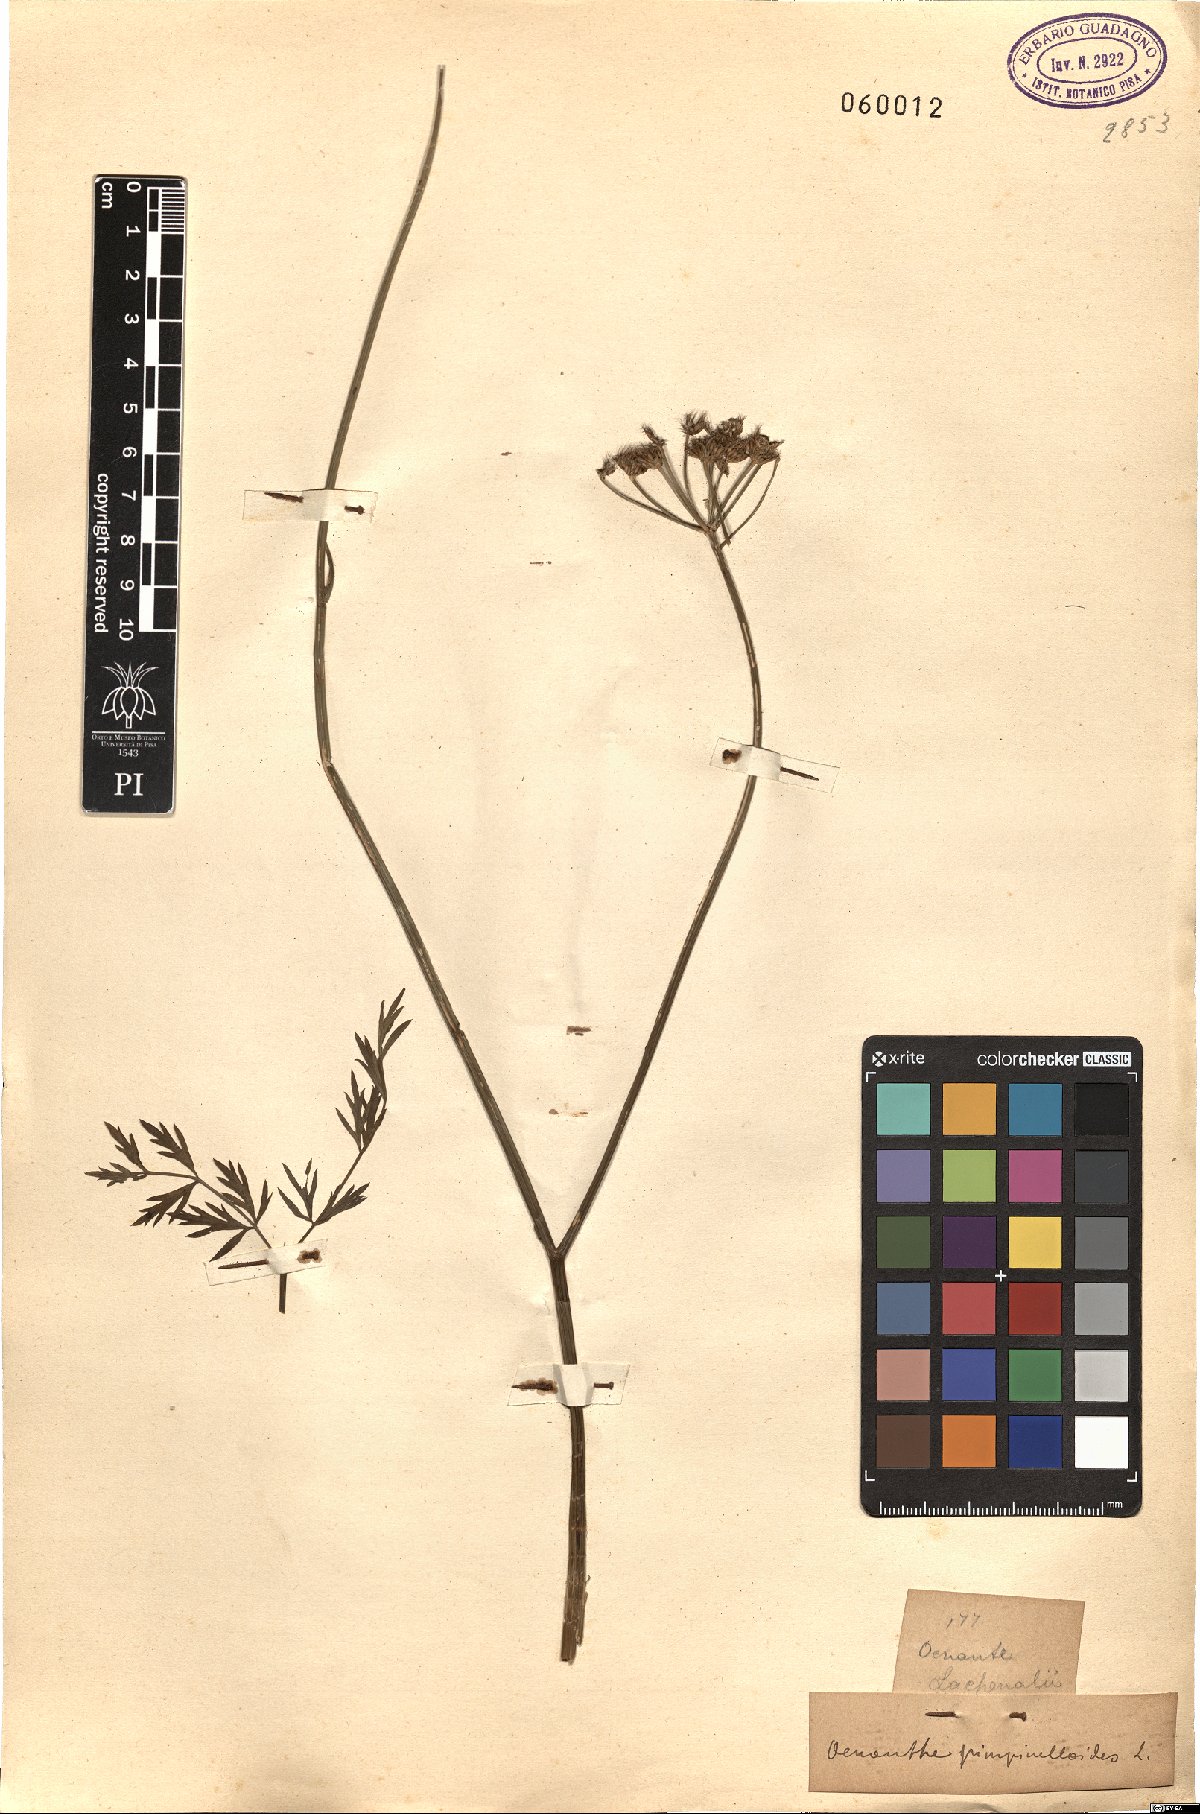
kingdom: Plantae
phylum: Tracheophyta
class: Magnoliopsida
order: Apiales
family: Apiaceae
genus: Oenanthe
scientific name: Oenanthe pimpinelloides
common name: Corky-fruited water-dropwort
